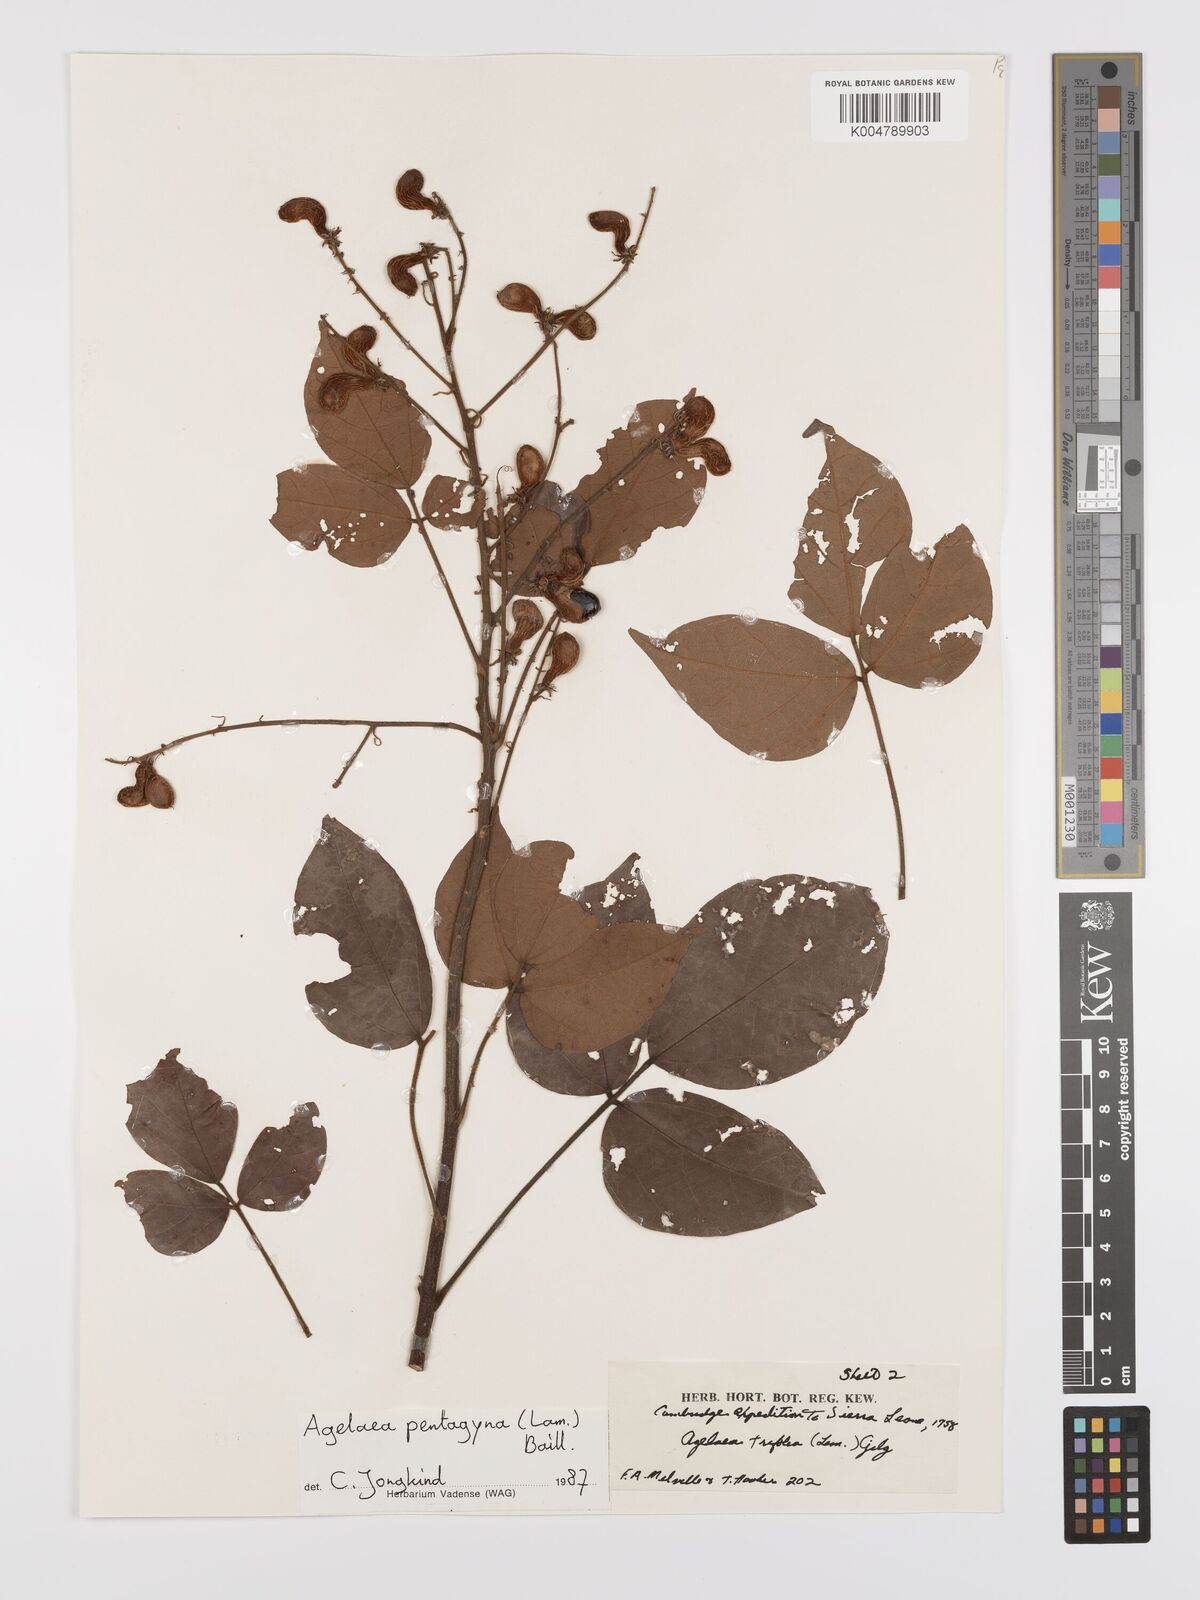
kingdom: Plantae
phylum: Tracheophyta
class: Magnoliopsida
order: Oxalidales
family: Connaraceae
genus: Agelaea
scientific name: Agelaea pentagyna
